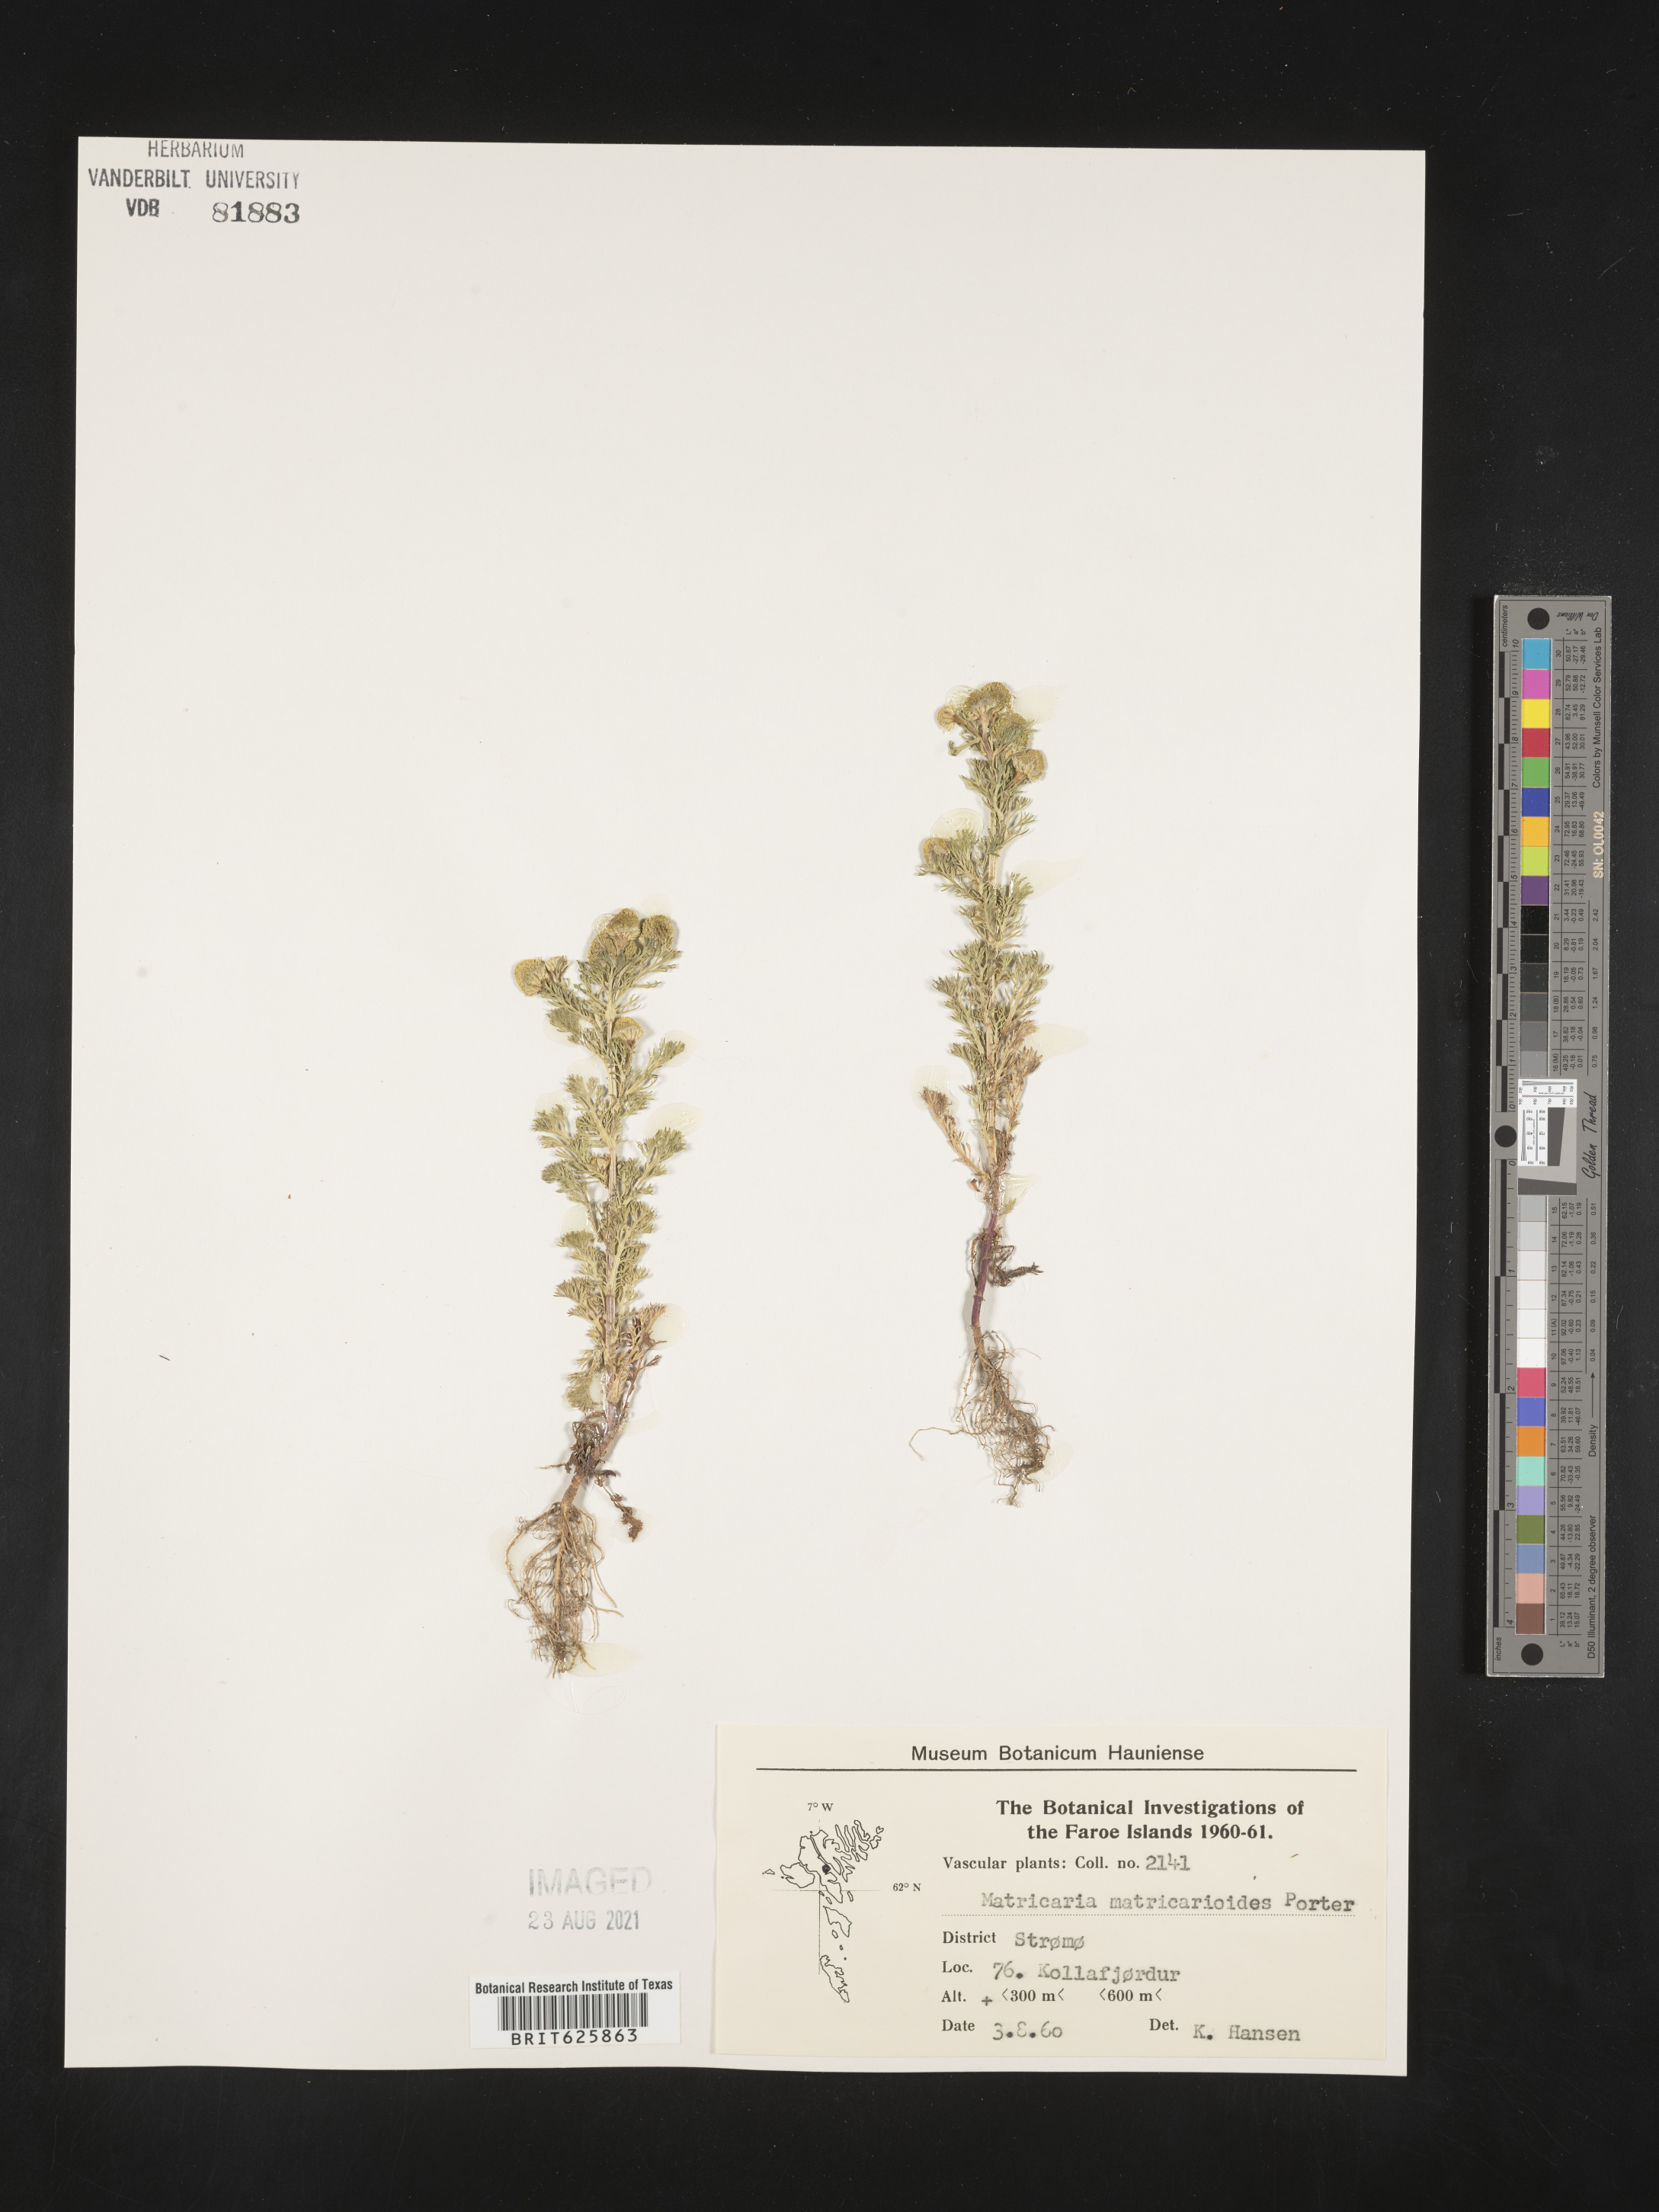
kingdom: Plantae
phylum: Tracheophyta
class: Magnoliopsida
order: Asterales
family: Asteraceae
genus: Matricaria
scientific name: Matricaria discoidea
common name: Disc mayweed
